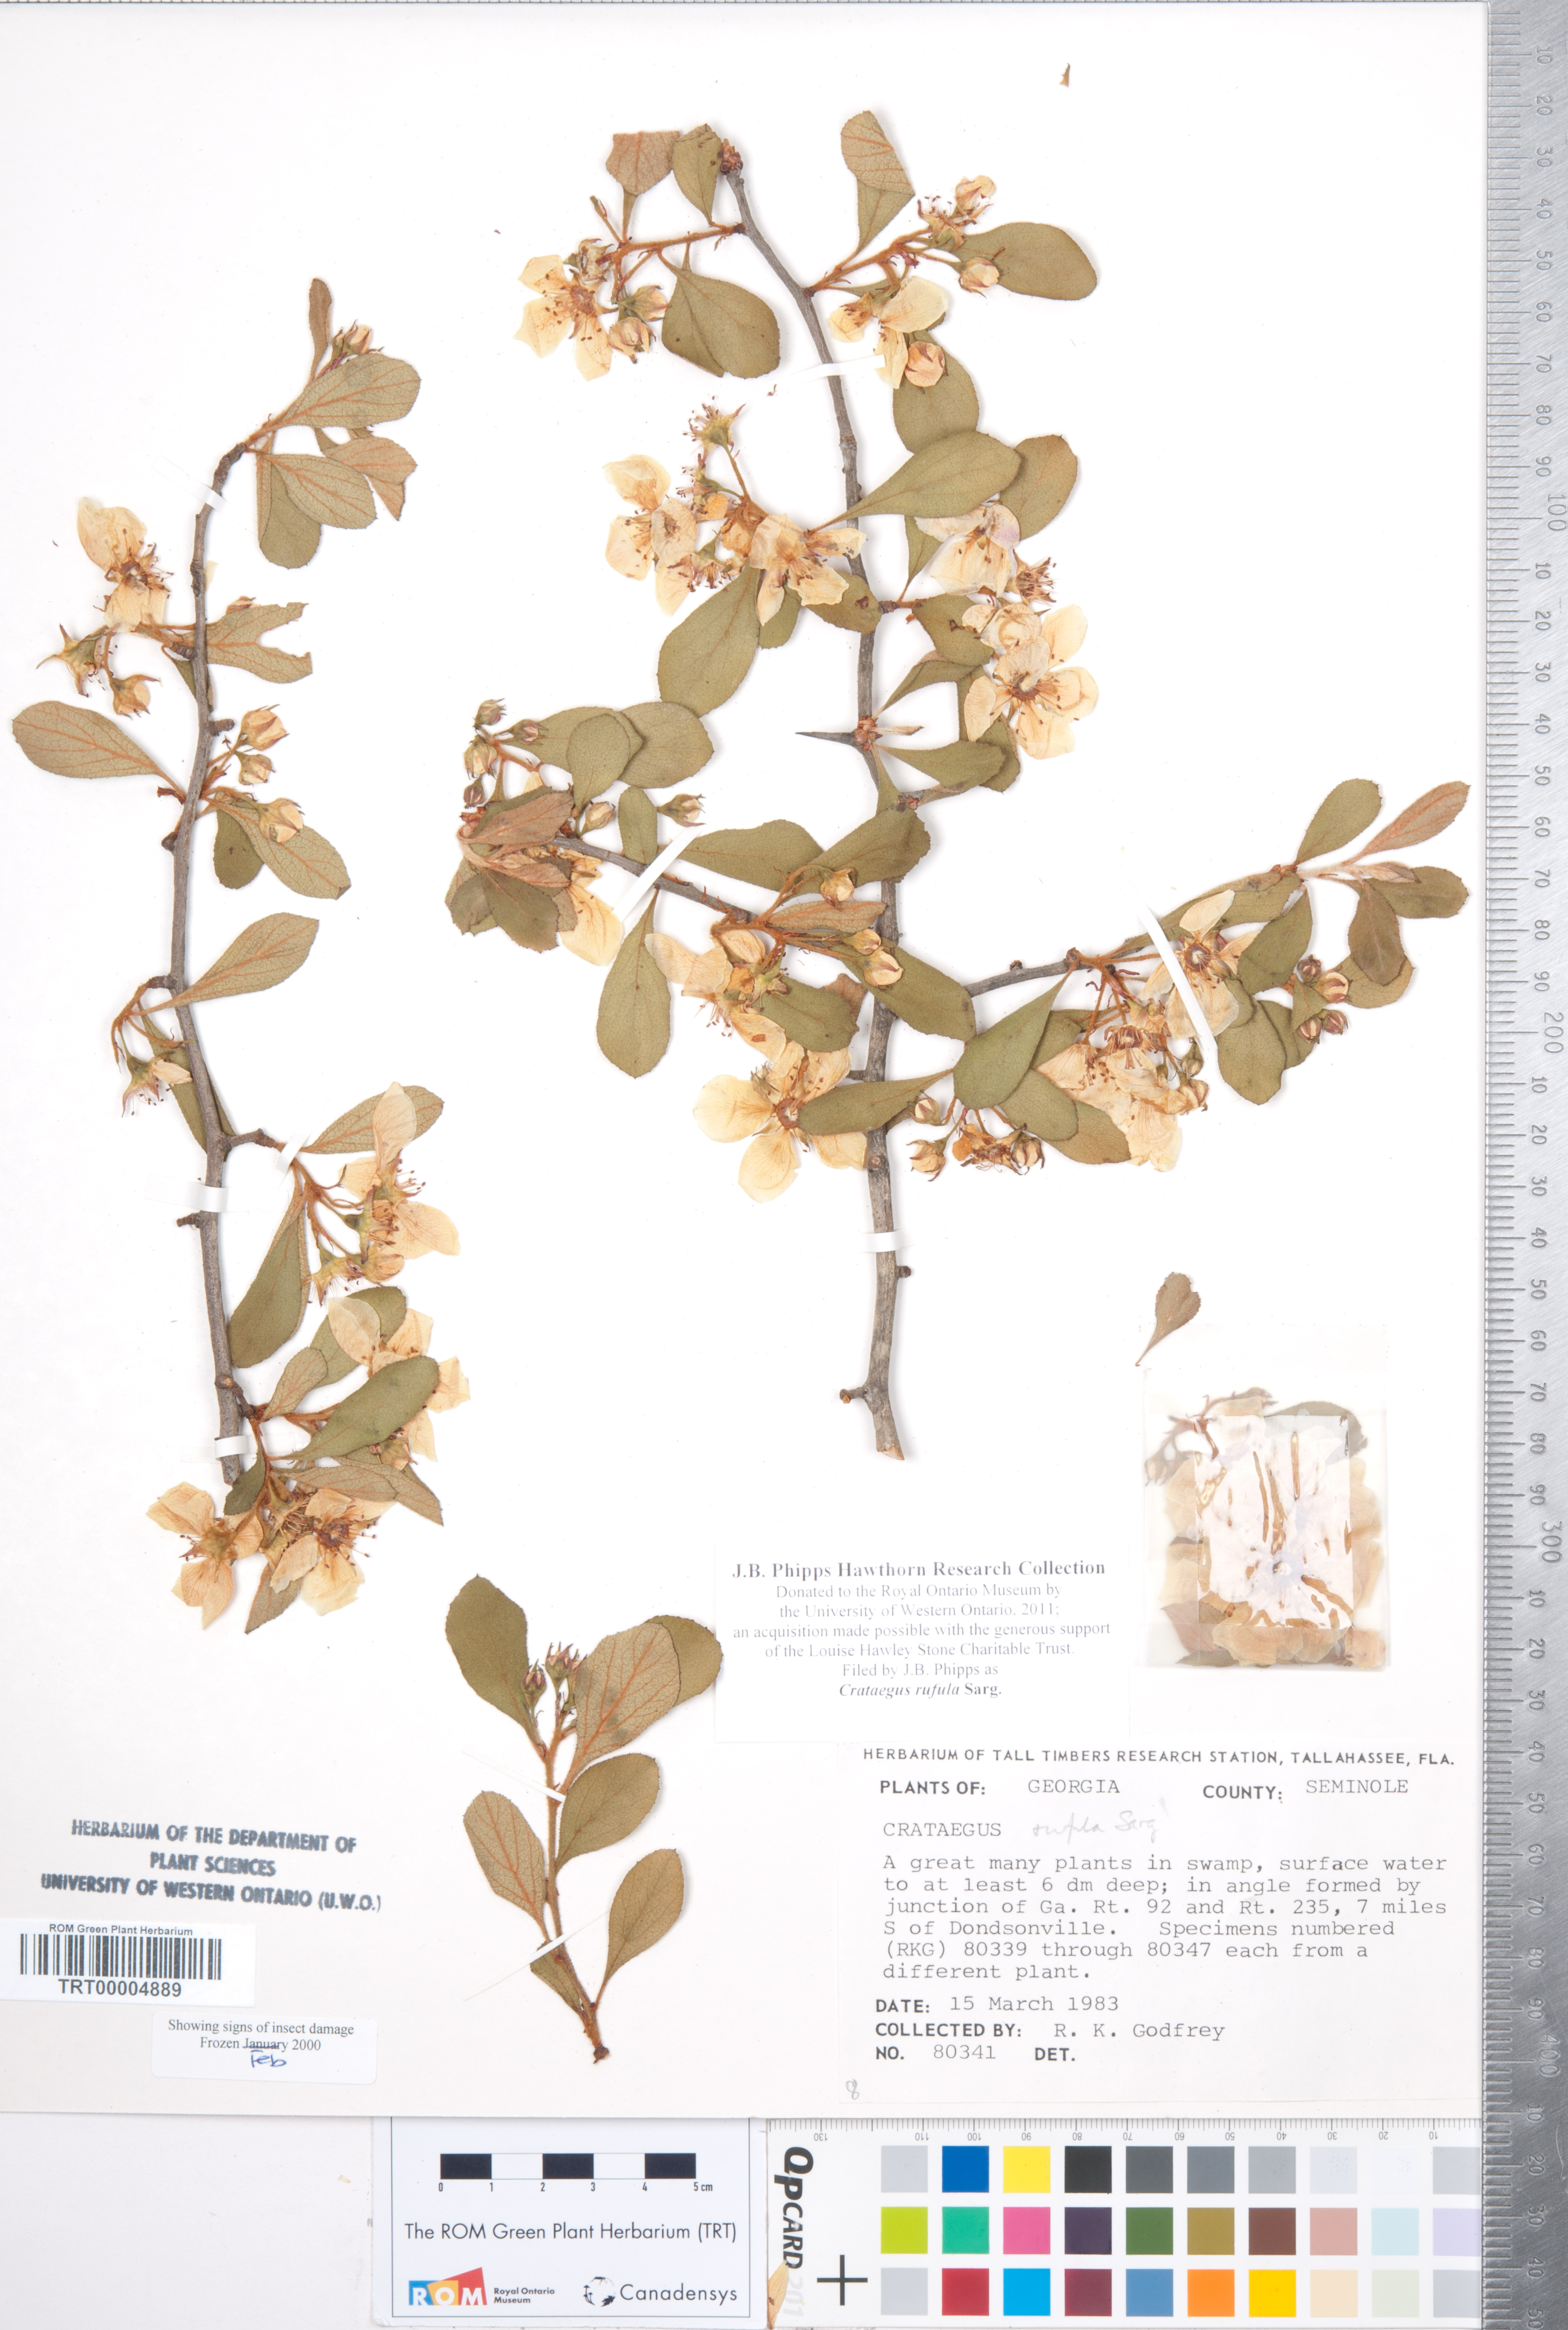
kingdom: Plantae
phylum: Tracheophyta
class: Magnoliopsida
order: Rosales
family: Rosaceae
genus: Crataegus
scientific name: Crataegus rufula
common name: Rufous mayhaw
